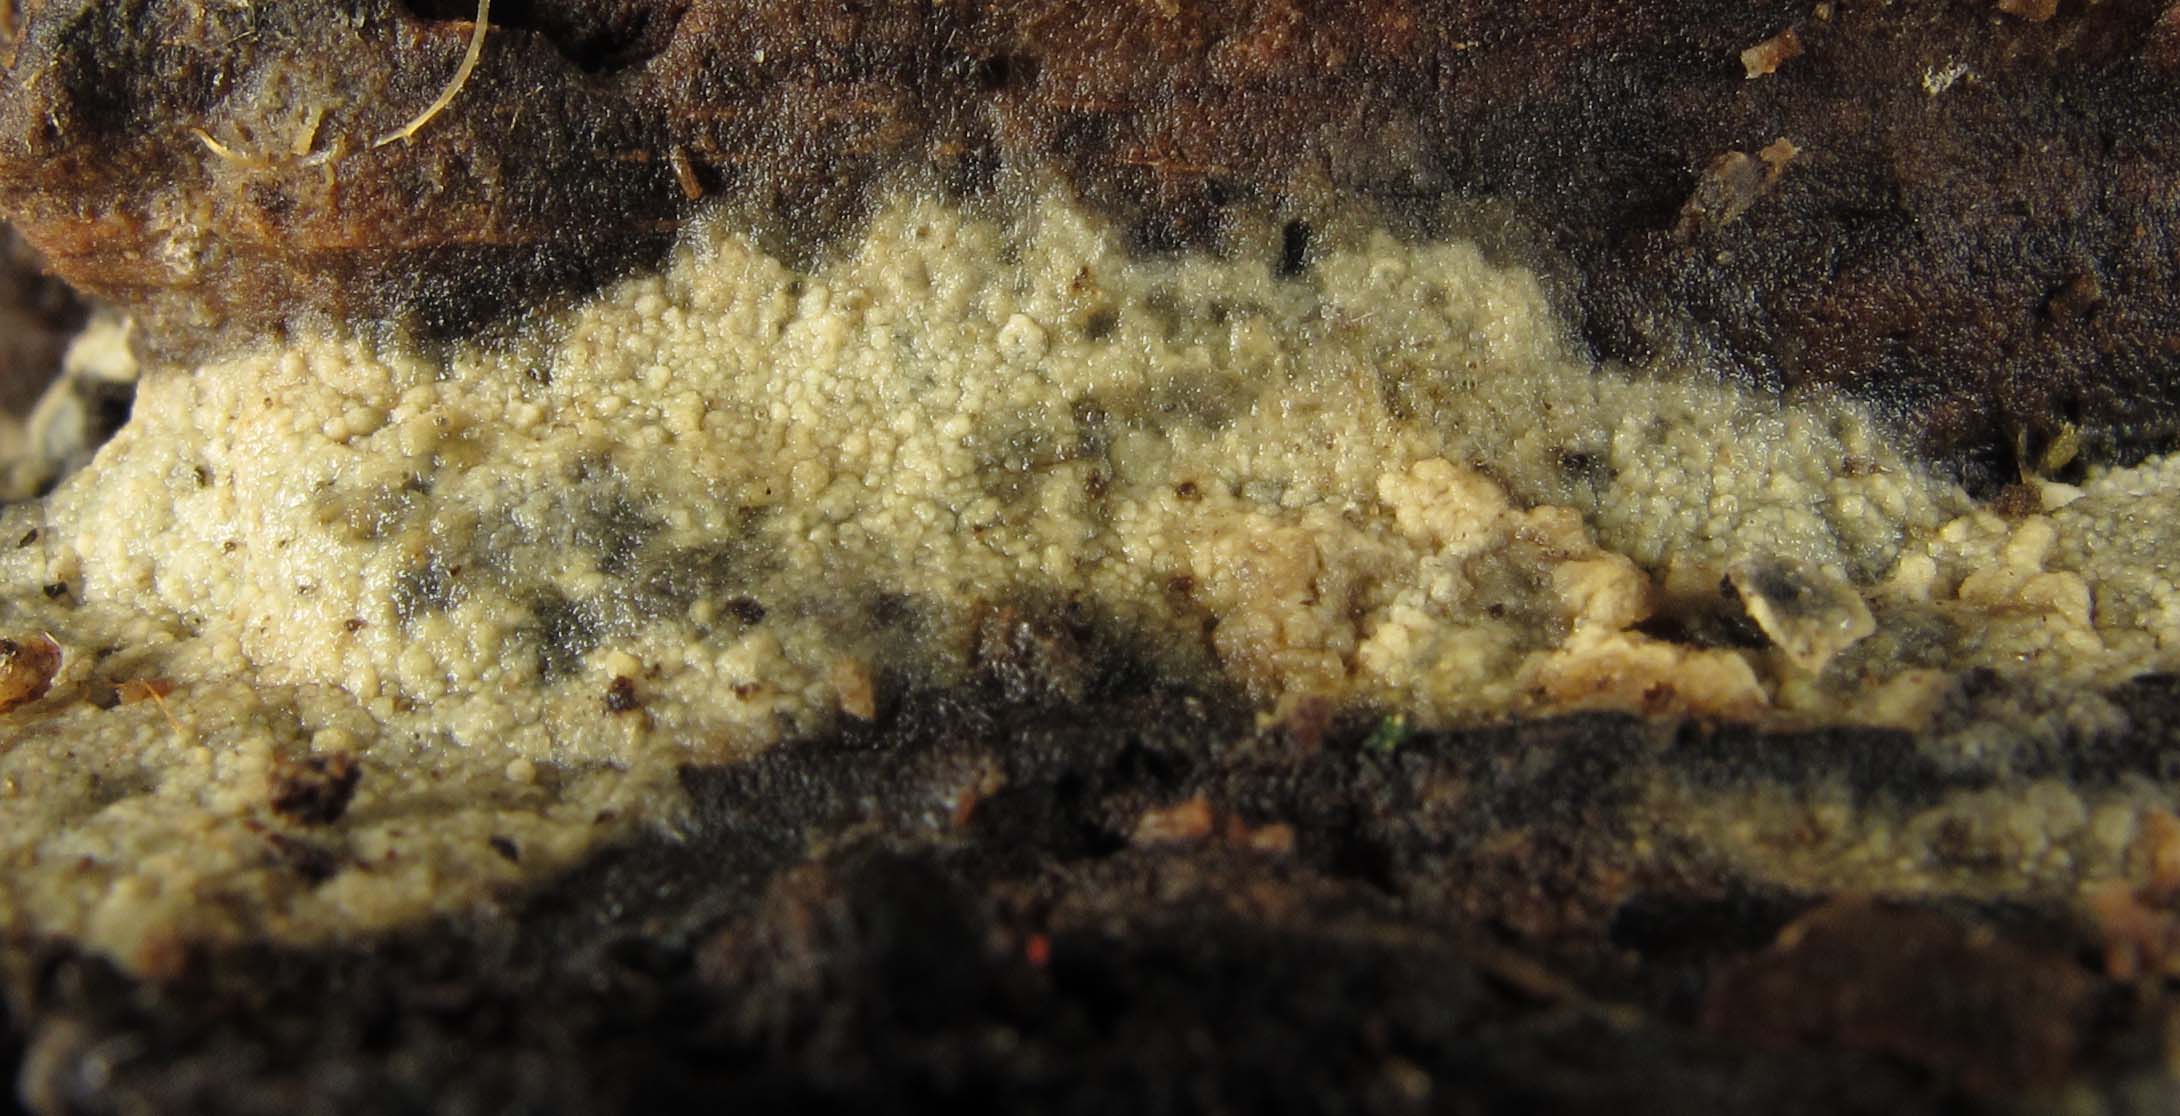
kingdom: Fungi
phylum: Basidiomycota
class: Agaricomycetes
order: Polyporales
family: Meruliaceae
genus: Scopuloides
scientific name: Scopuloides rimosa
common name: dughinde
